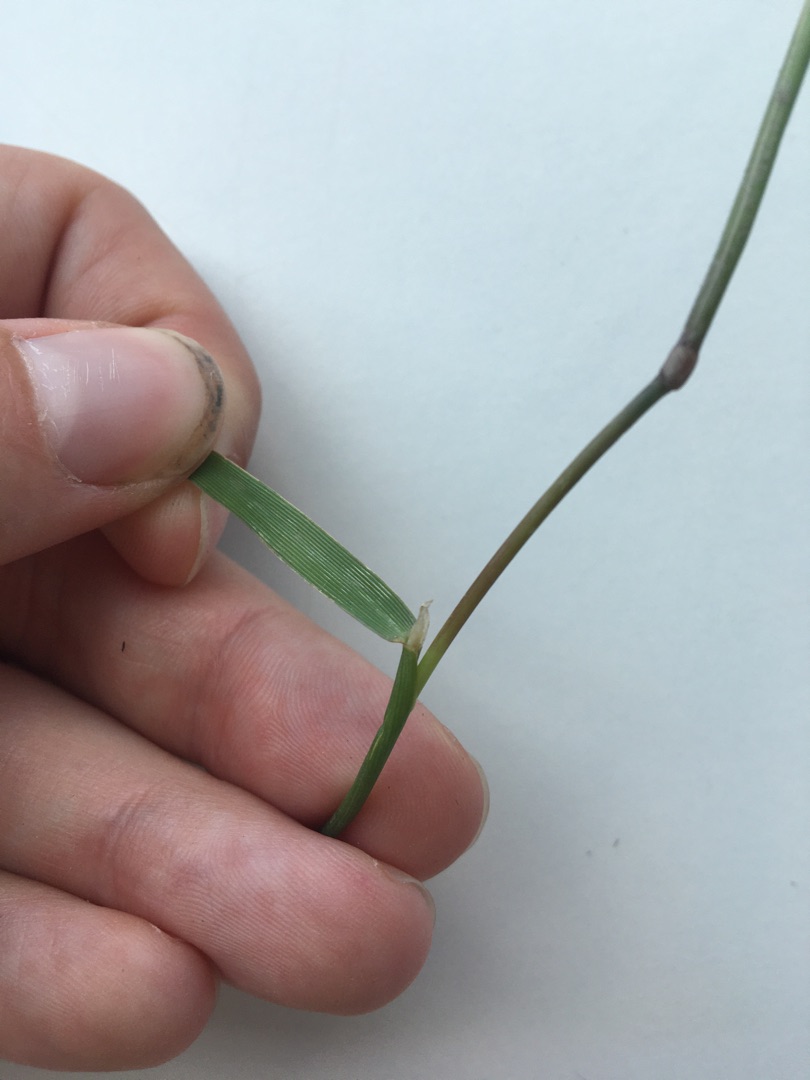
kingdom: Plantae
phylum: Tracheophyta
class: Liliopsida
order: Poales
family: Poaceae
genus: Alopecurus
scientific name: Alopecurus geniculatus
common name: Knæbøjet rævehale
